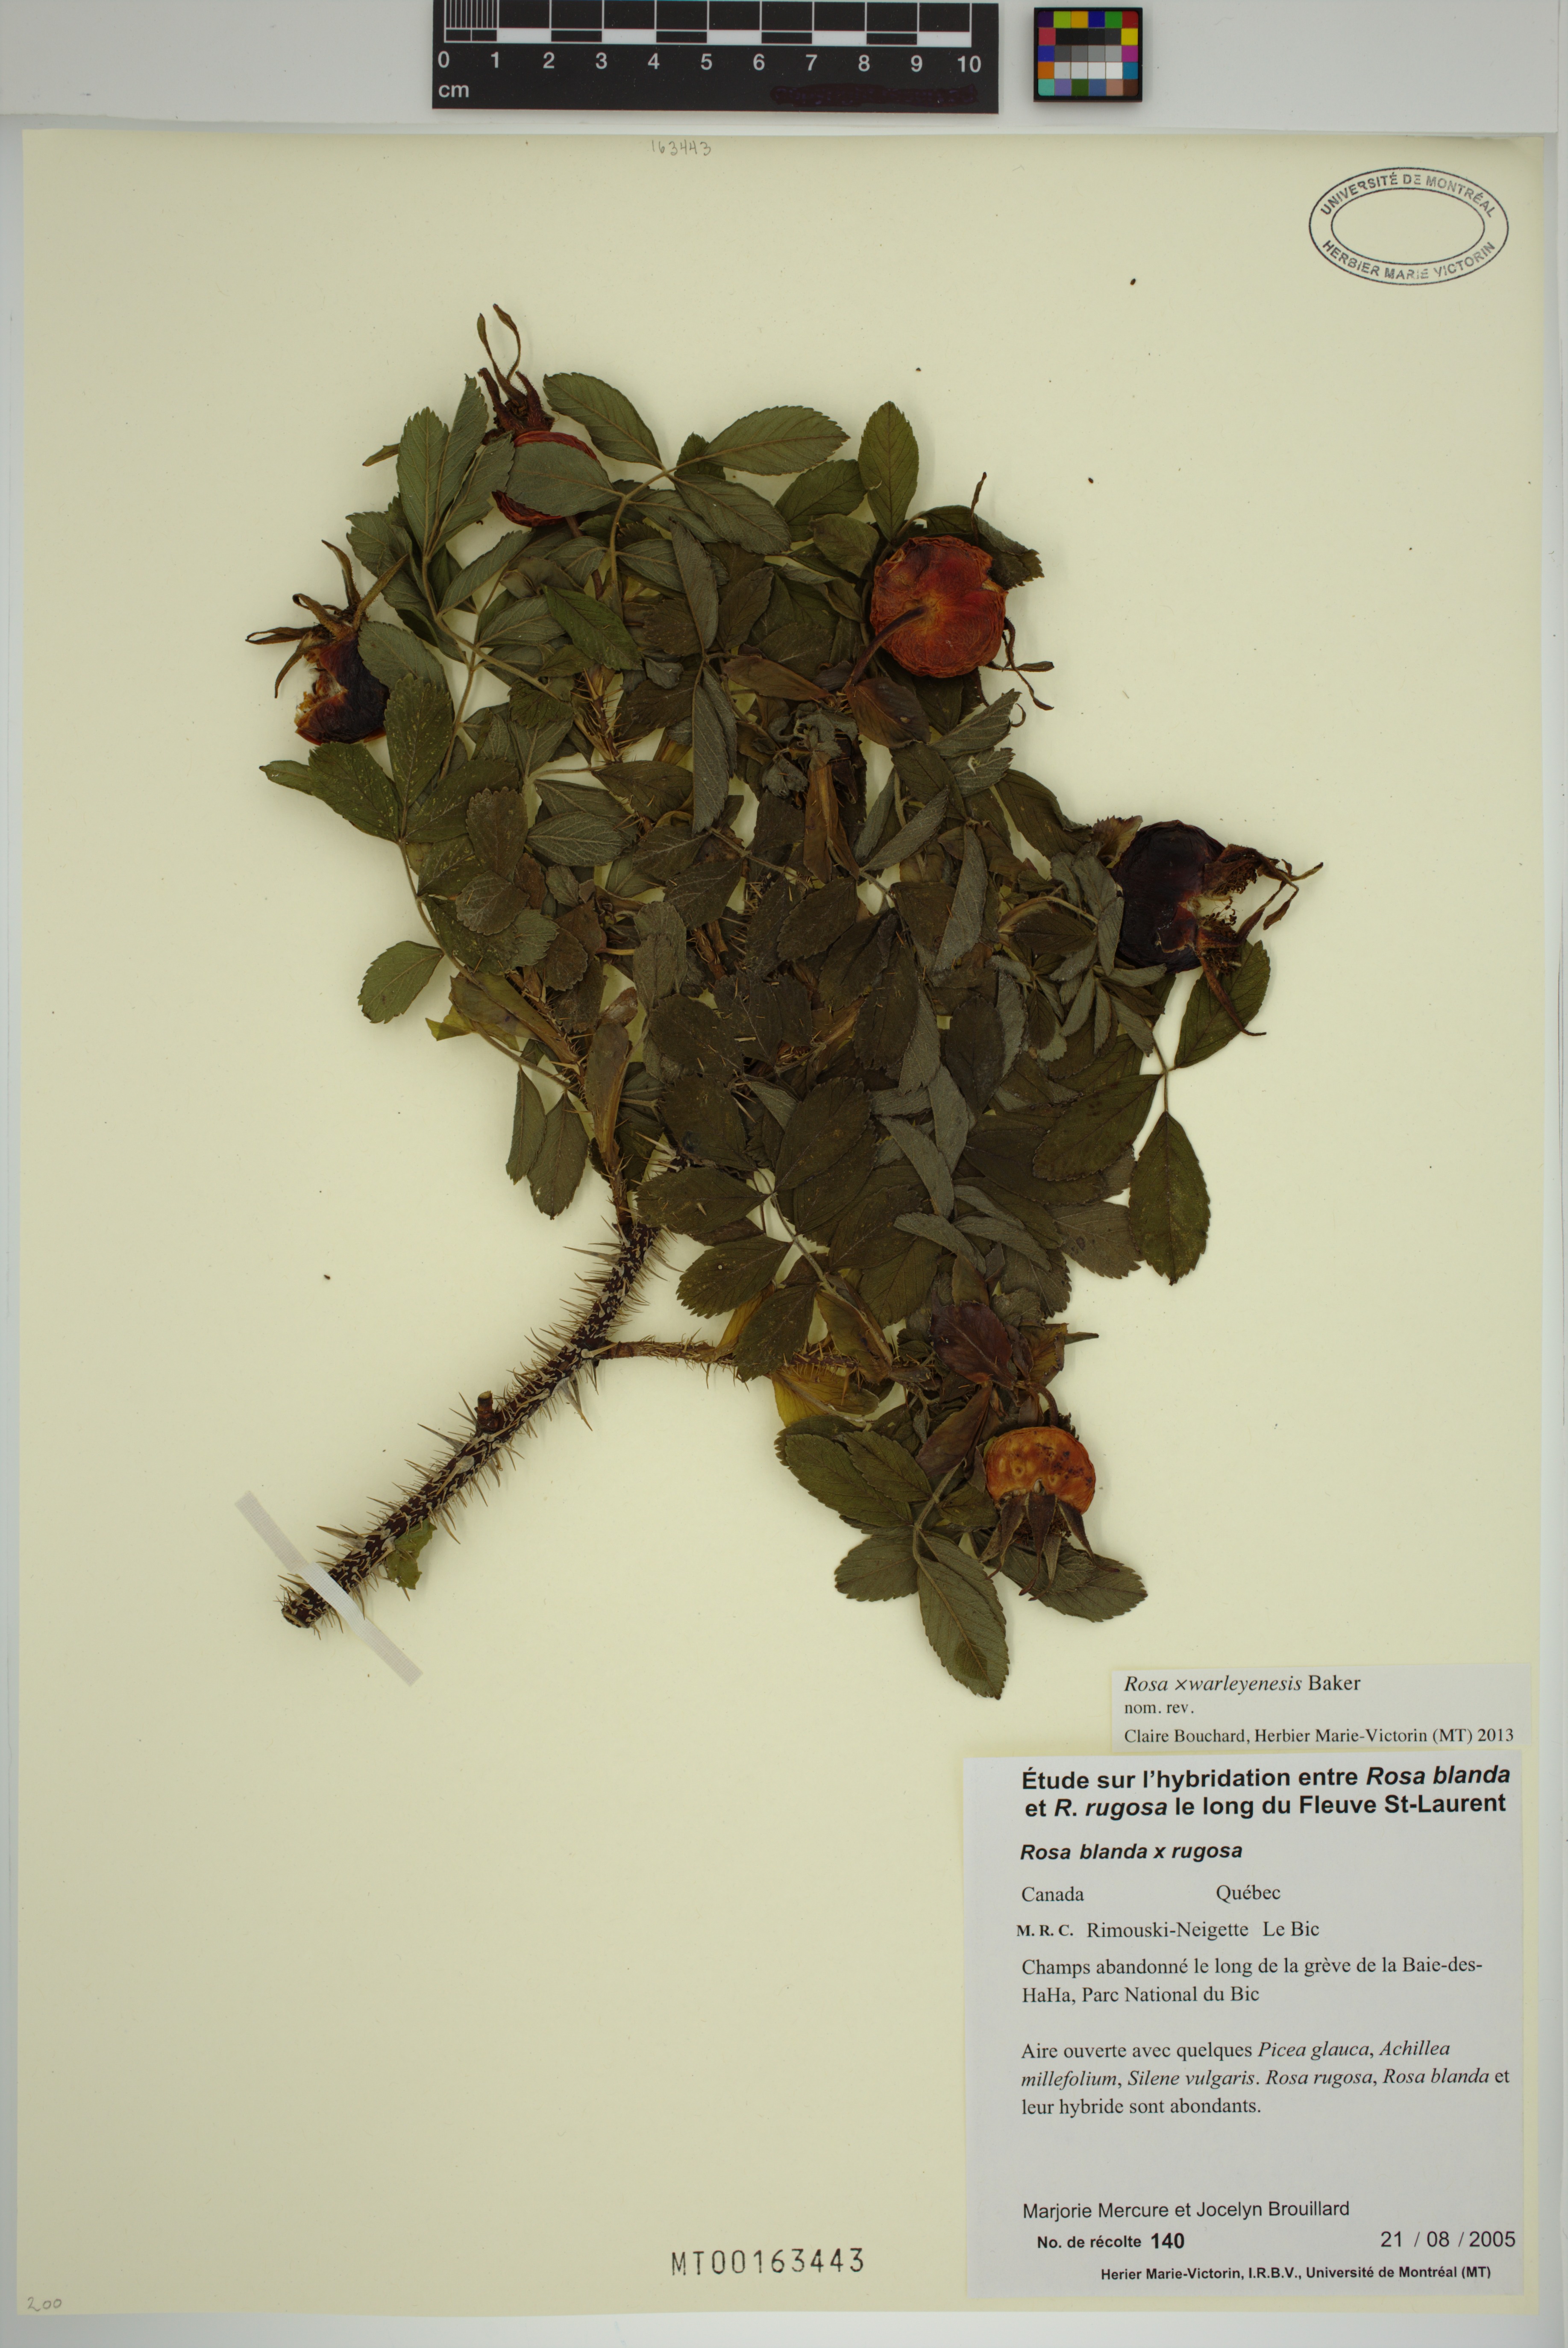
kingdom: Plantae
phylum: Tracheophyta
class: Magnoliopsida
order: Rosales
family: Rosaceae
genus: Rosa
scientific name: Rosa warleyensis
